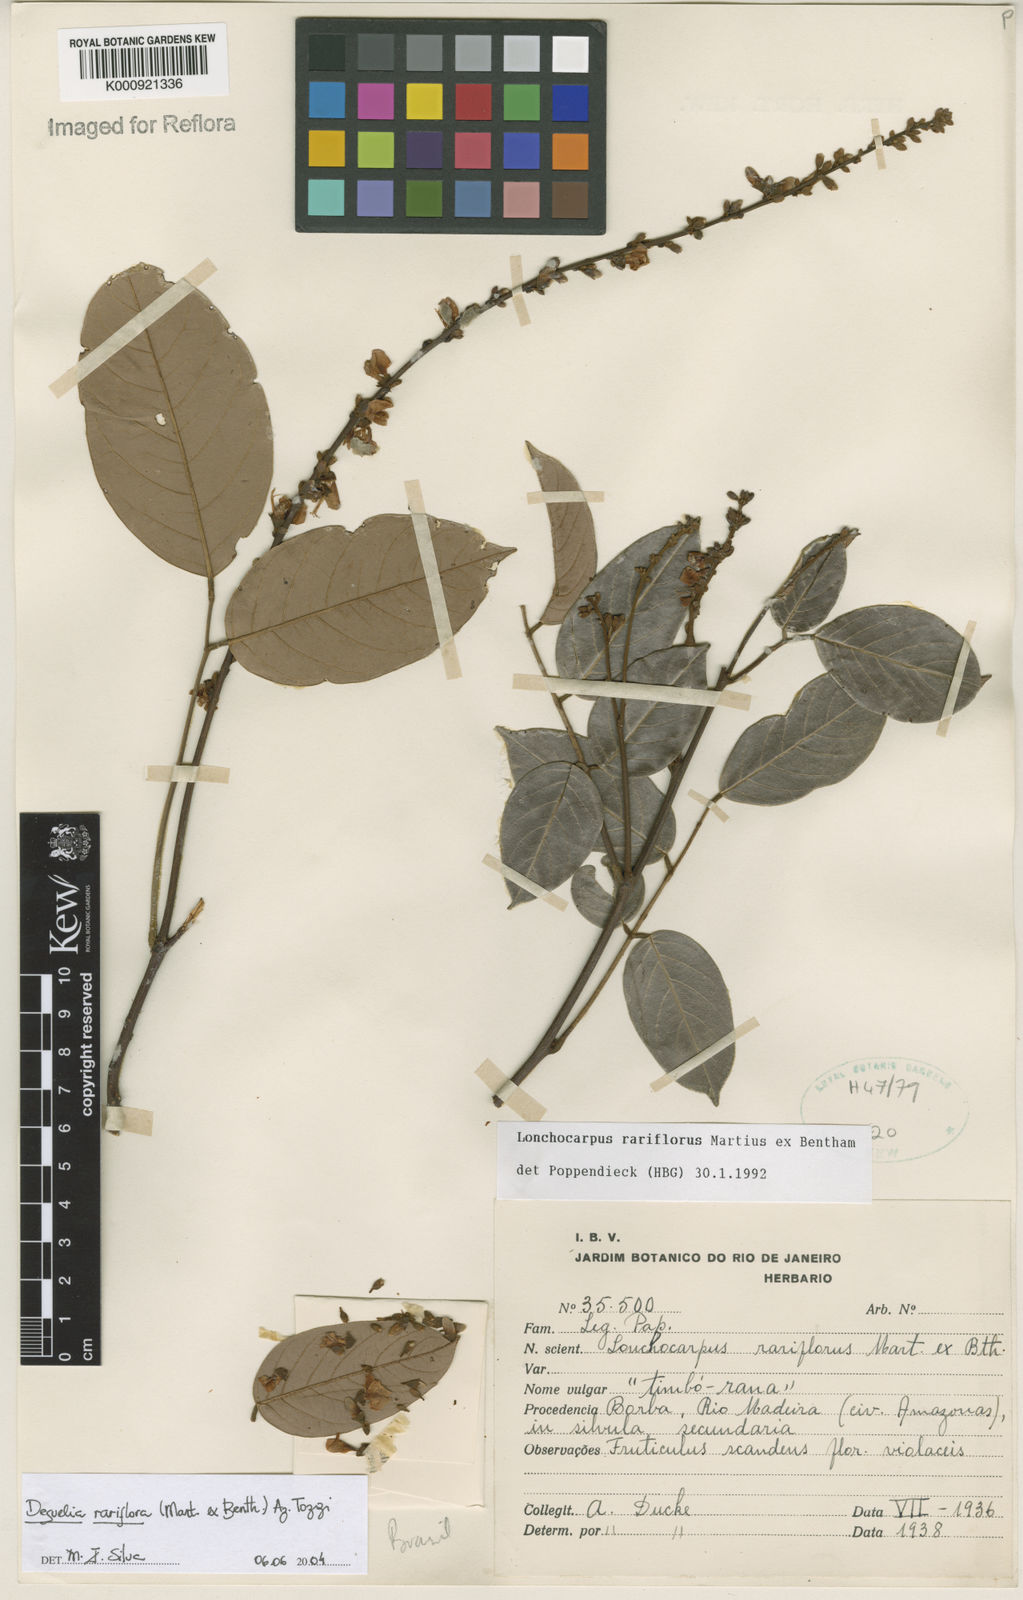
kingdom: Plantae
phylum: Tracheophyta
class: Magnoliopsida
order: Fabales
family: Fabaceae
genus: Deguelia
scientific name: Deguelia
